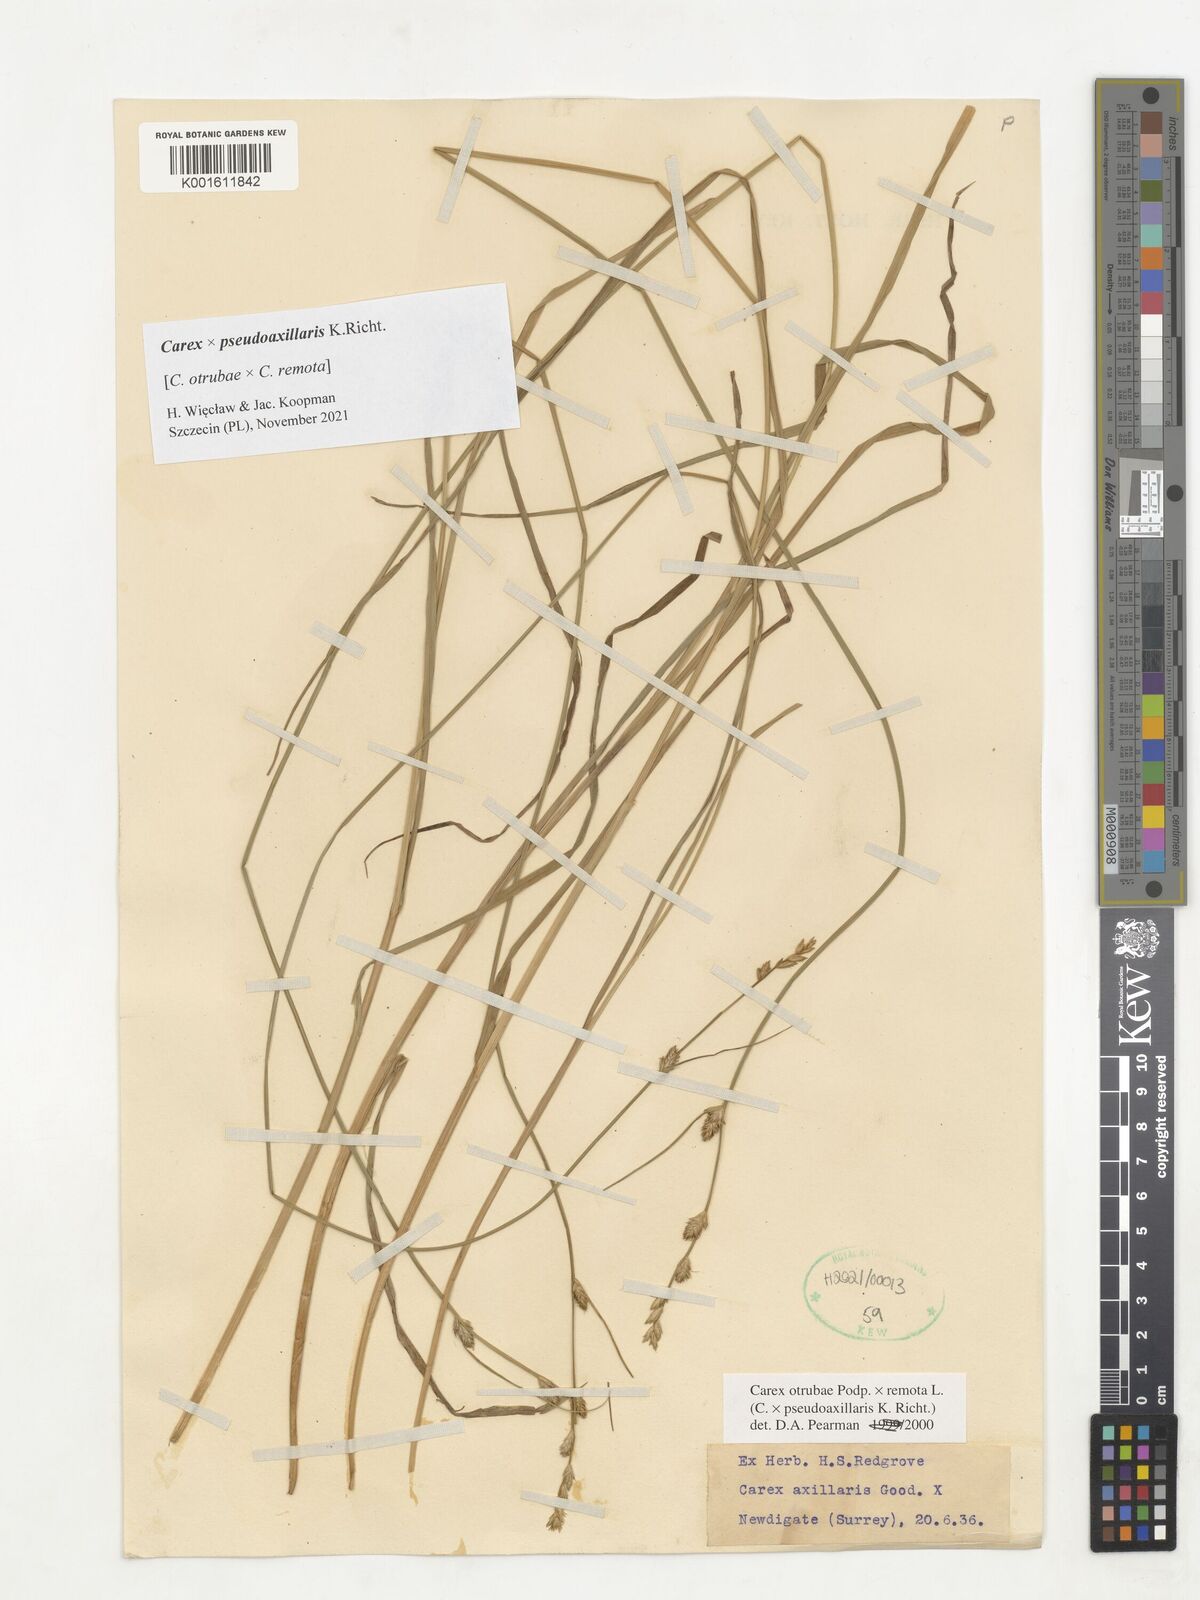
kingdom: Plantae
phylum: Tracheophyta
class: Liliopsida
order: Poales
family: Cyperaceae
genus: Carex
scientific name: Carex pseudoaxillaris
